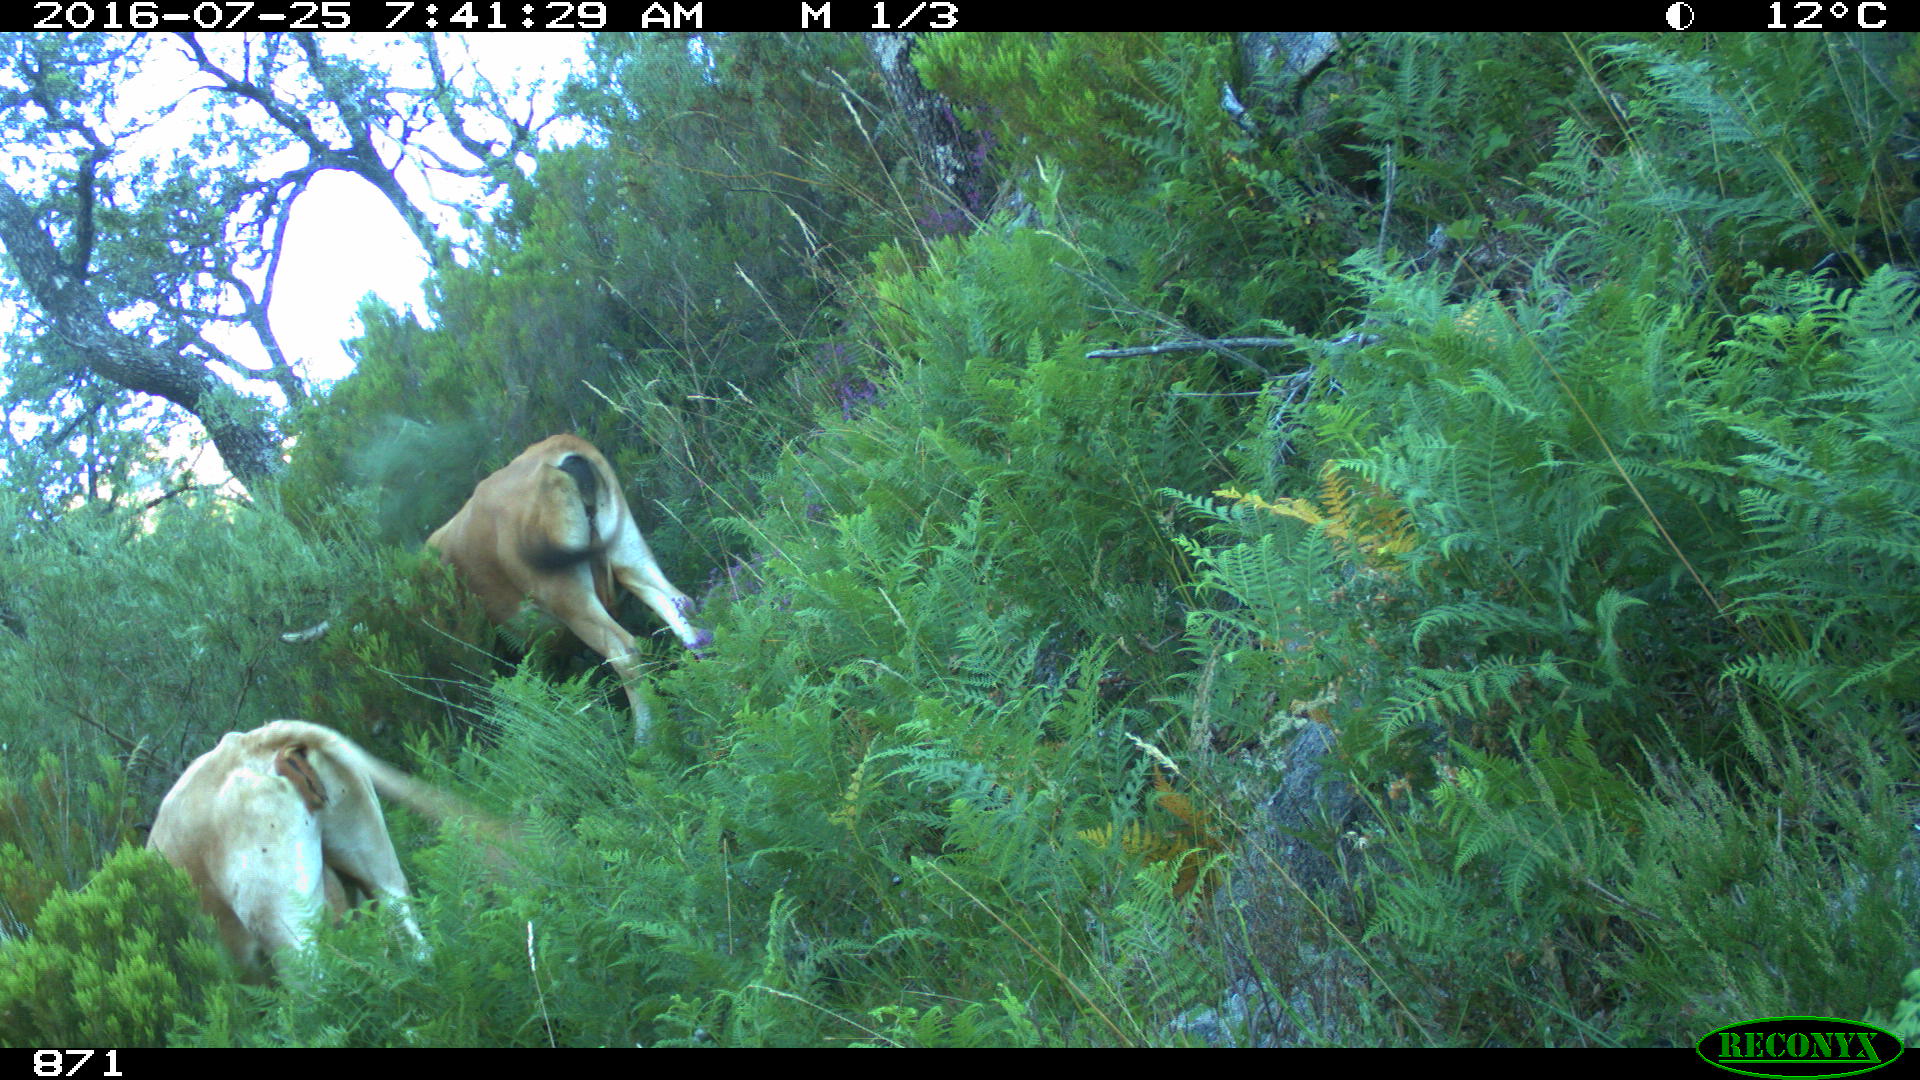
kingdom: Animalia
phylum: Chordata
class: Mammalia
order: Artiodactyla
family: Bovidae
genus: Bos
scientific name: Bos taurus
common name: Domesticated cattle
